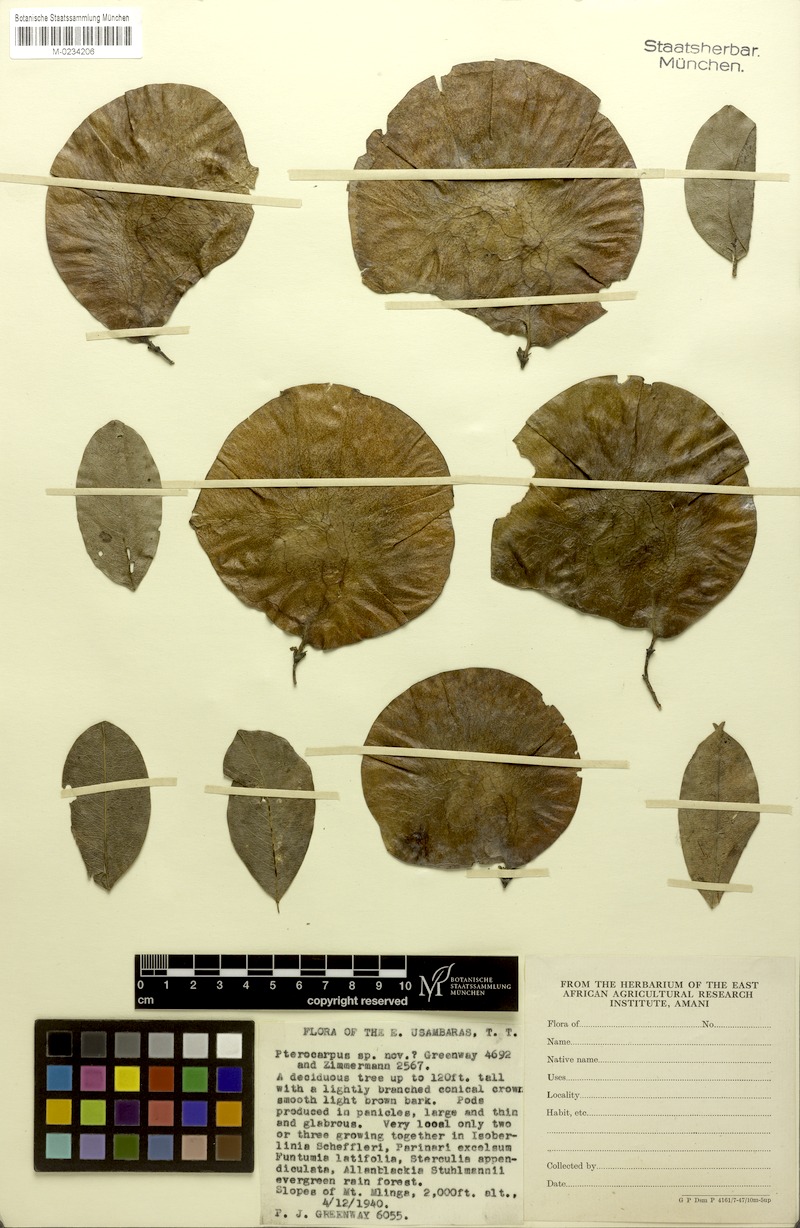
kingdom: Plantae
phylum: Tracheophyta
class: Magnoliopsida
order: Fabales
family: Fabaceae
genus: Pterocarpus
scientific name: Pterocarpus mildbraedii
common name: White padouk
